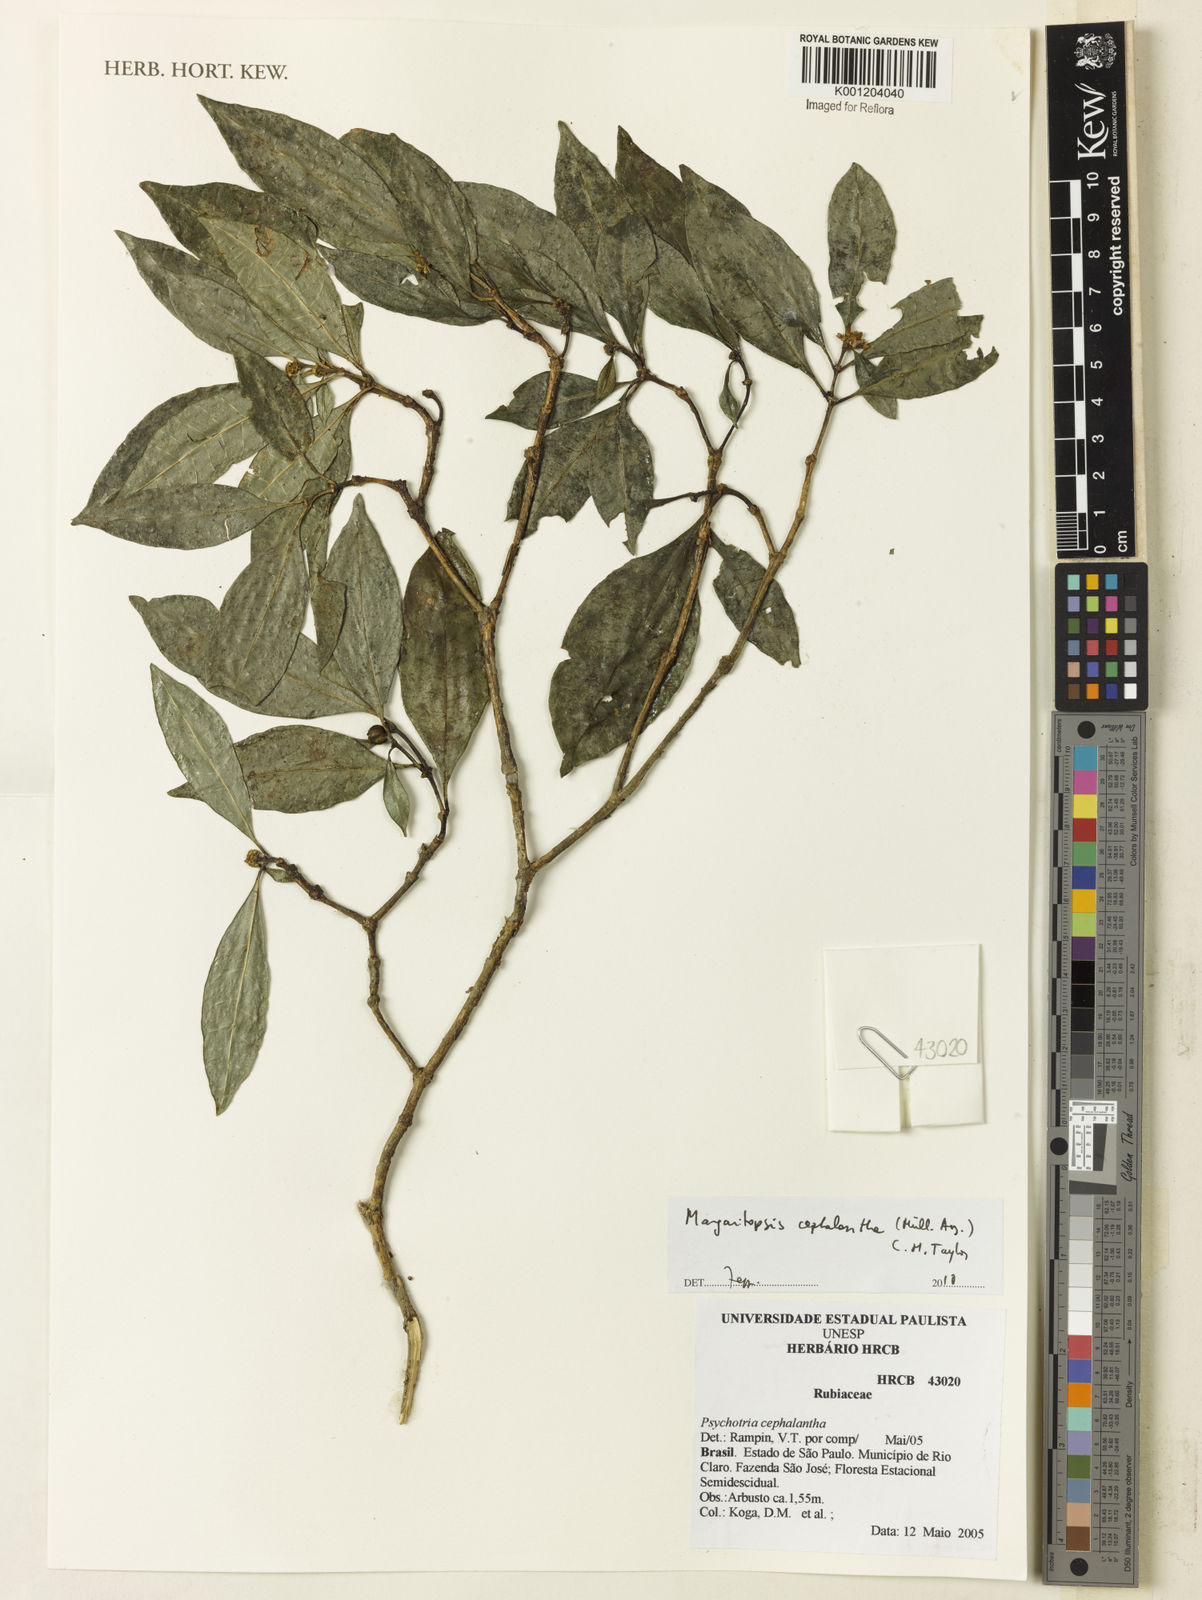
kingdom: Plantae
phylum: Tracheophyta
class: Magnoliopsida
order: Gentianales
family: Rubiaceae
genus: Eumachia
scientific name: Eumachia
